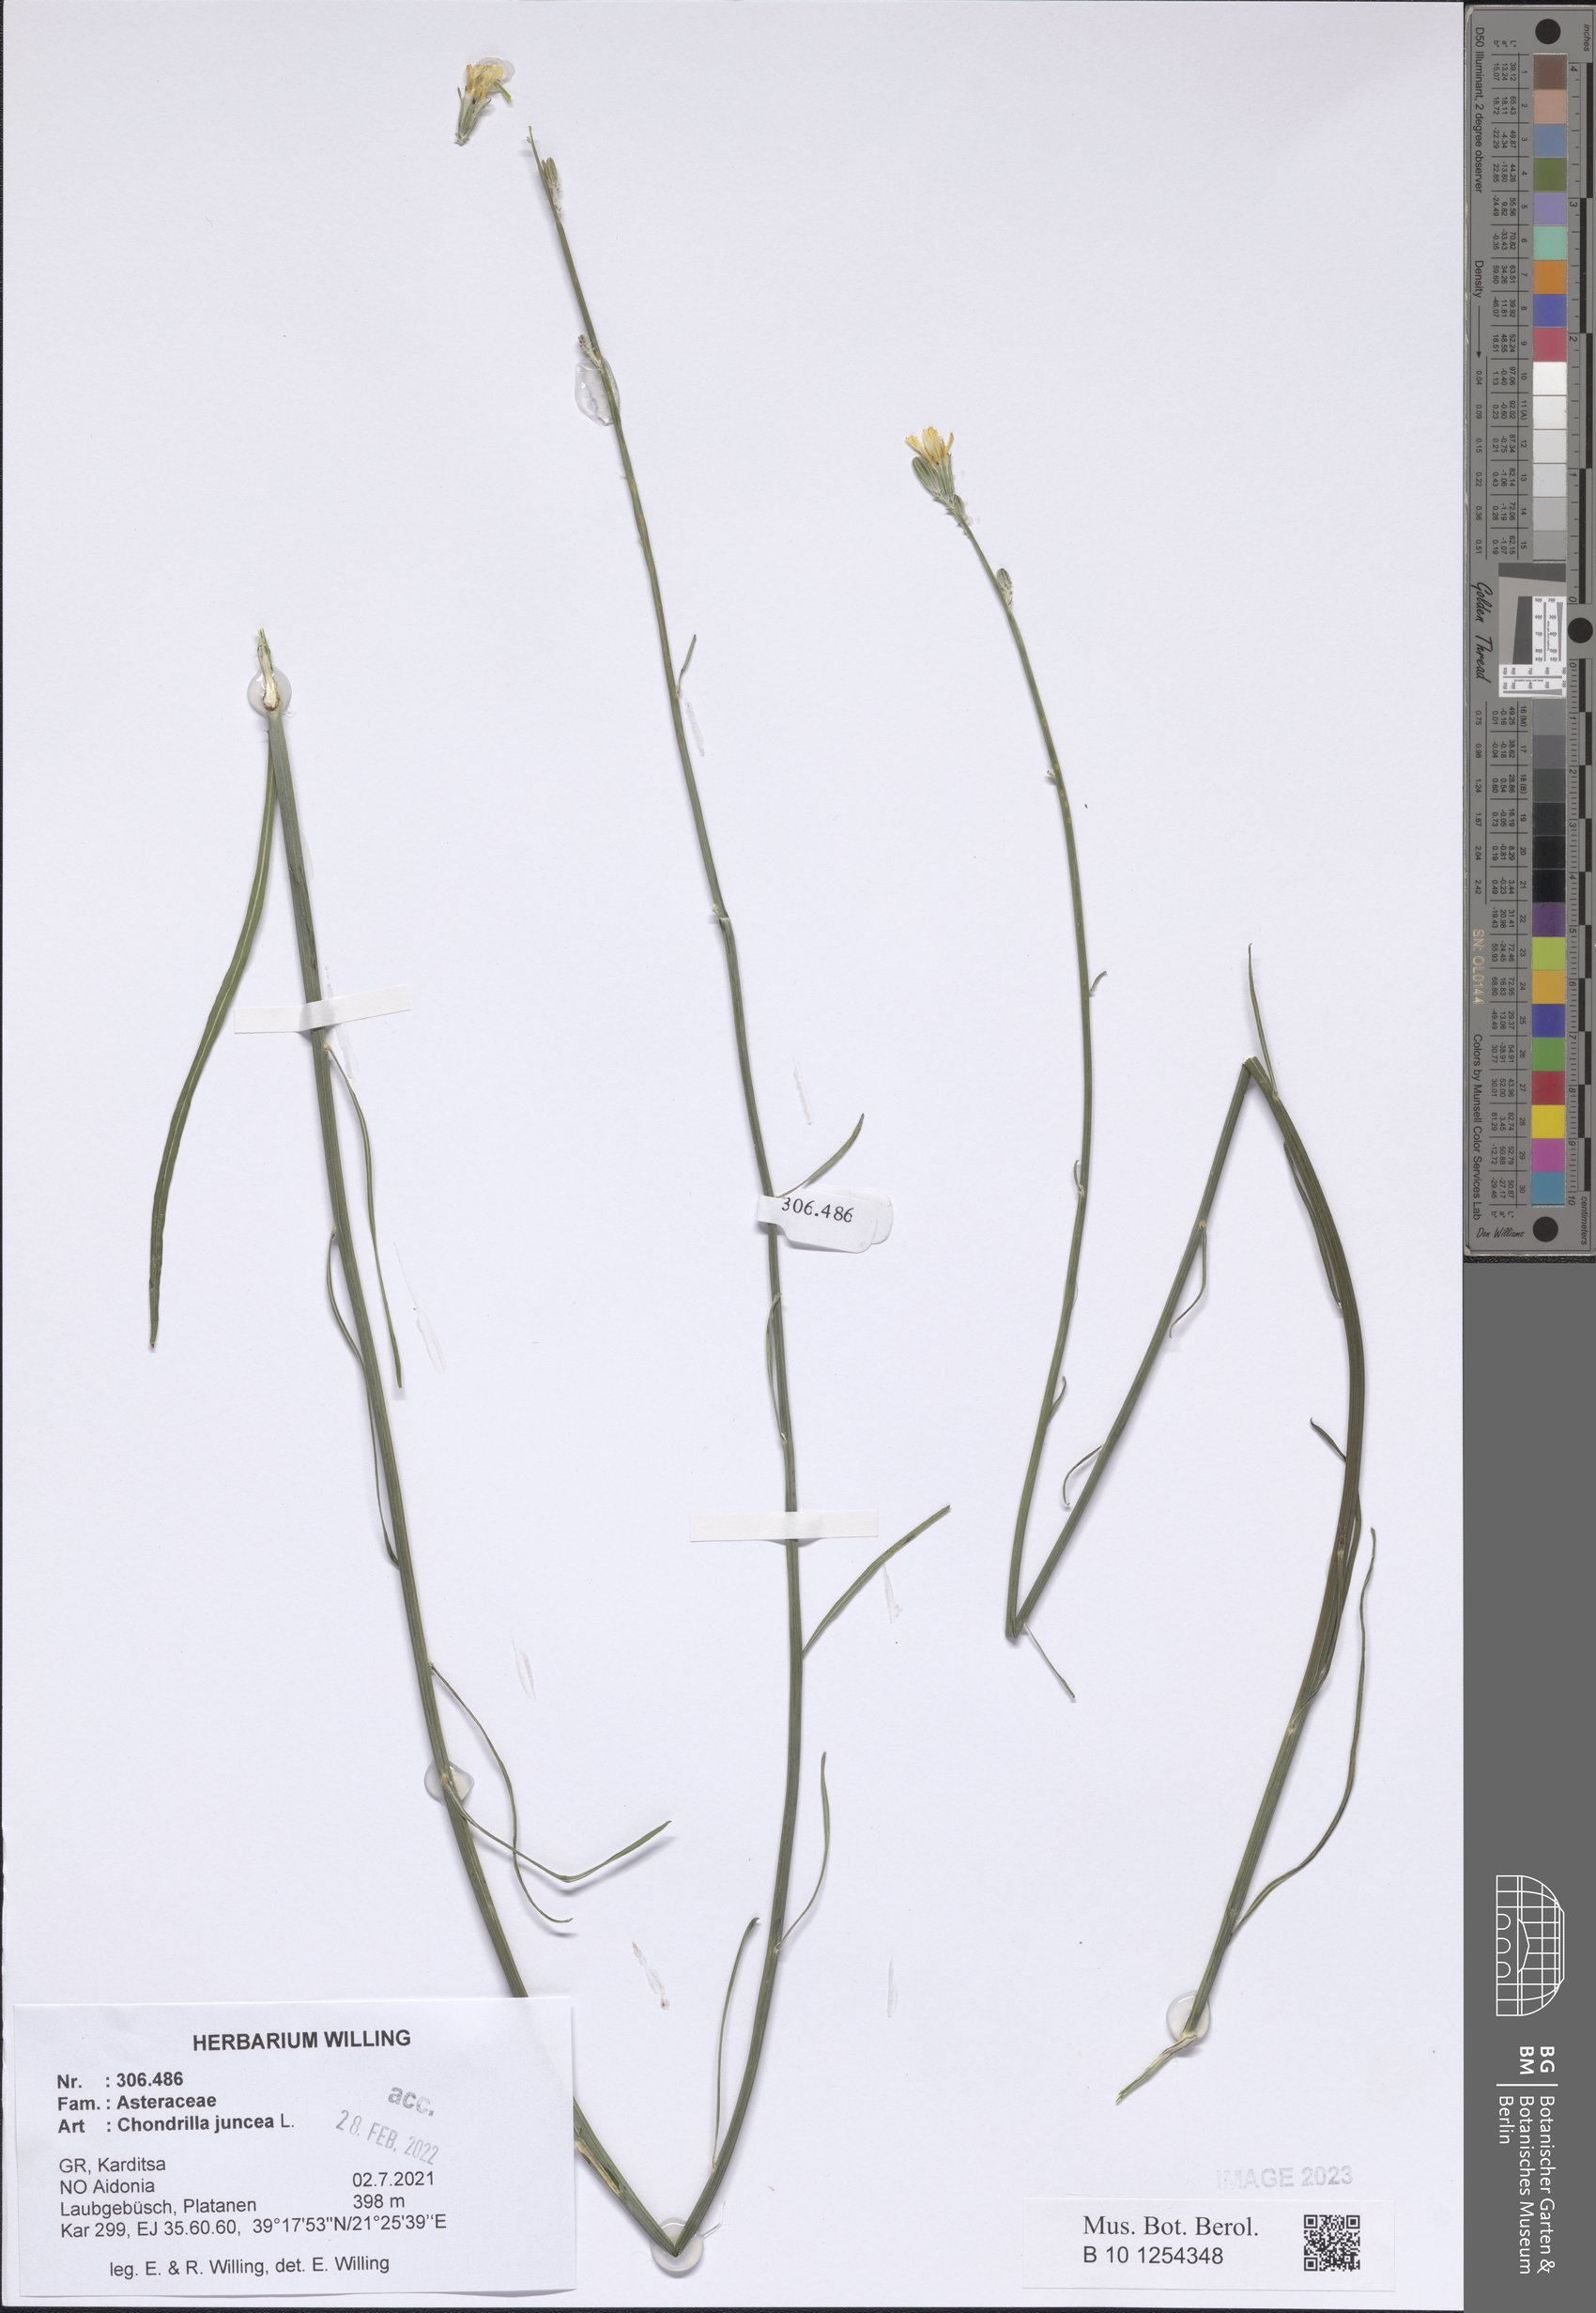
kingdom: Plantae
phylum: Tracheophyta
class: Magnoliopsida
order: Asterales
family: Asteraceae
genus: Chondrilla
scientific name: Chondrilla juncea
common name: Skeleton weed
